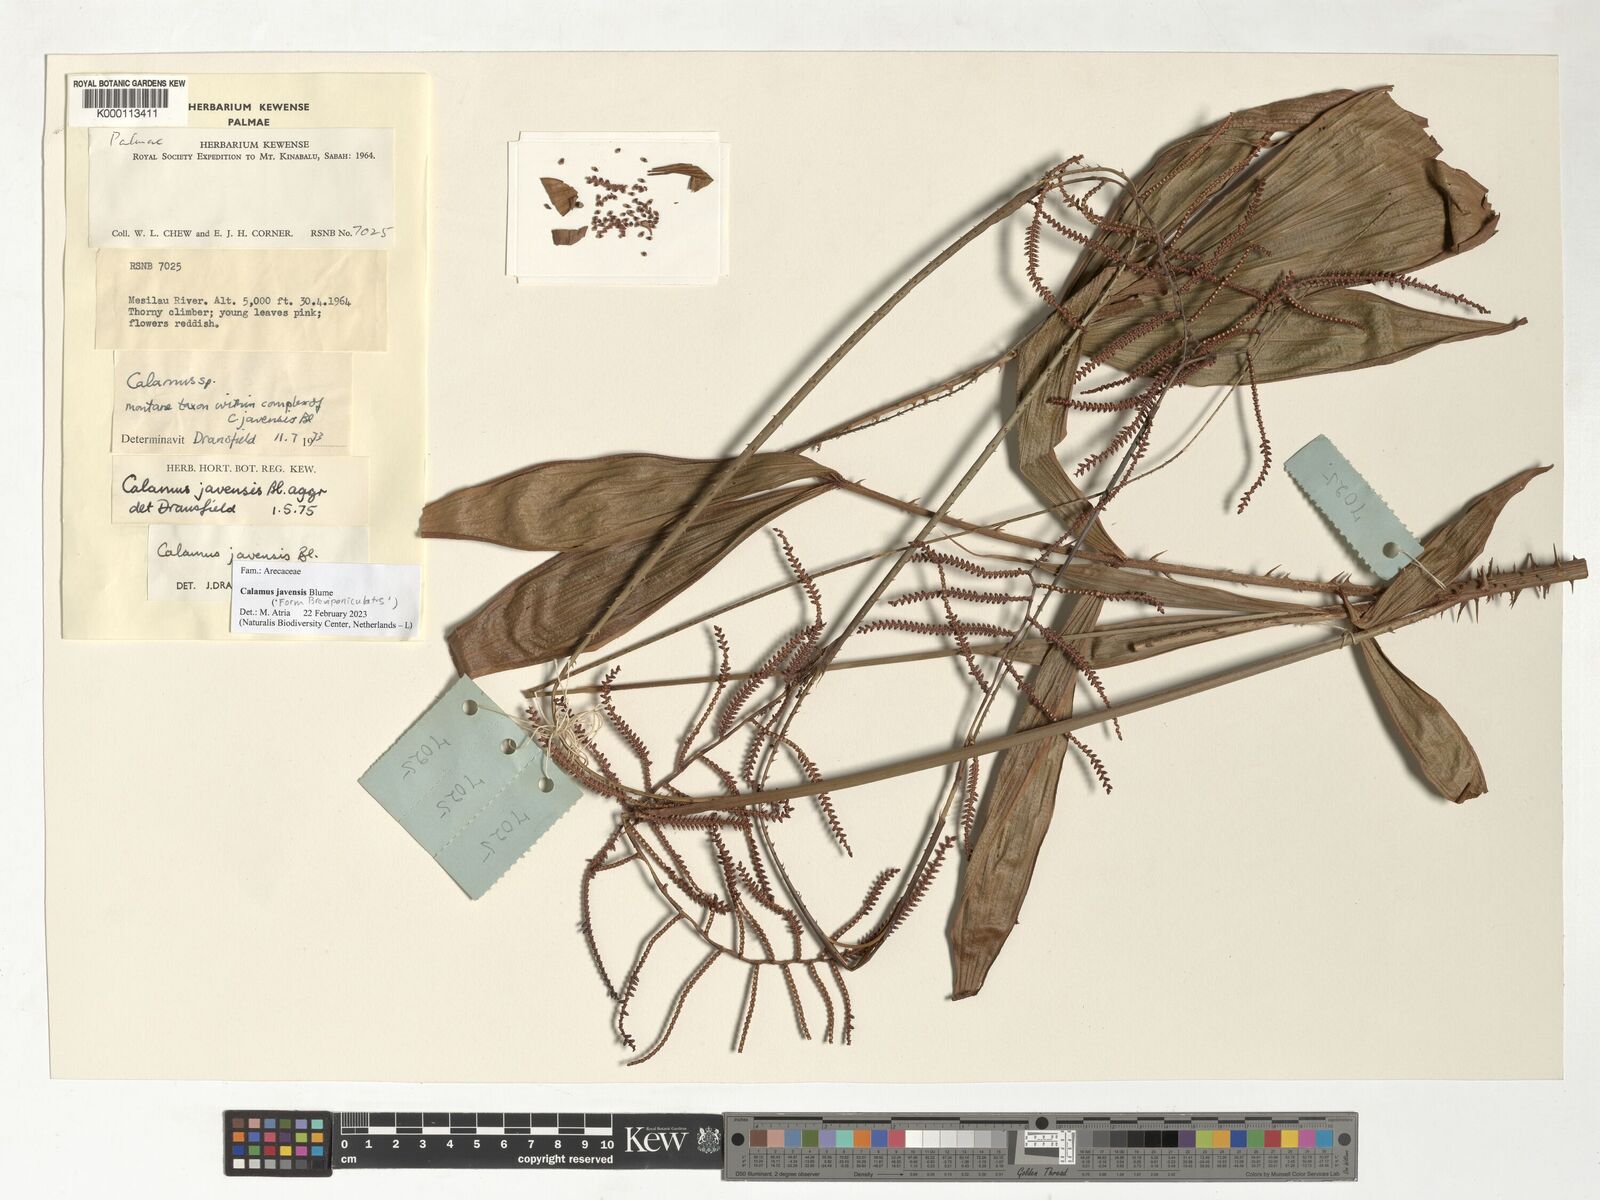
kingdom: Plantae
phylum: Tracheophyta
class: Liliopsida
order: Arecales
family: Arecaceae
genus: Calamus
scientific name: Calamus javensis
